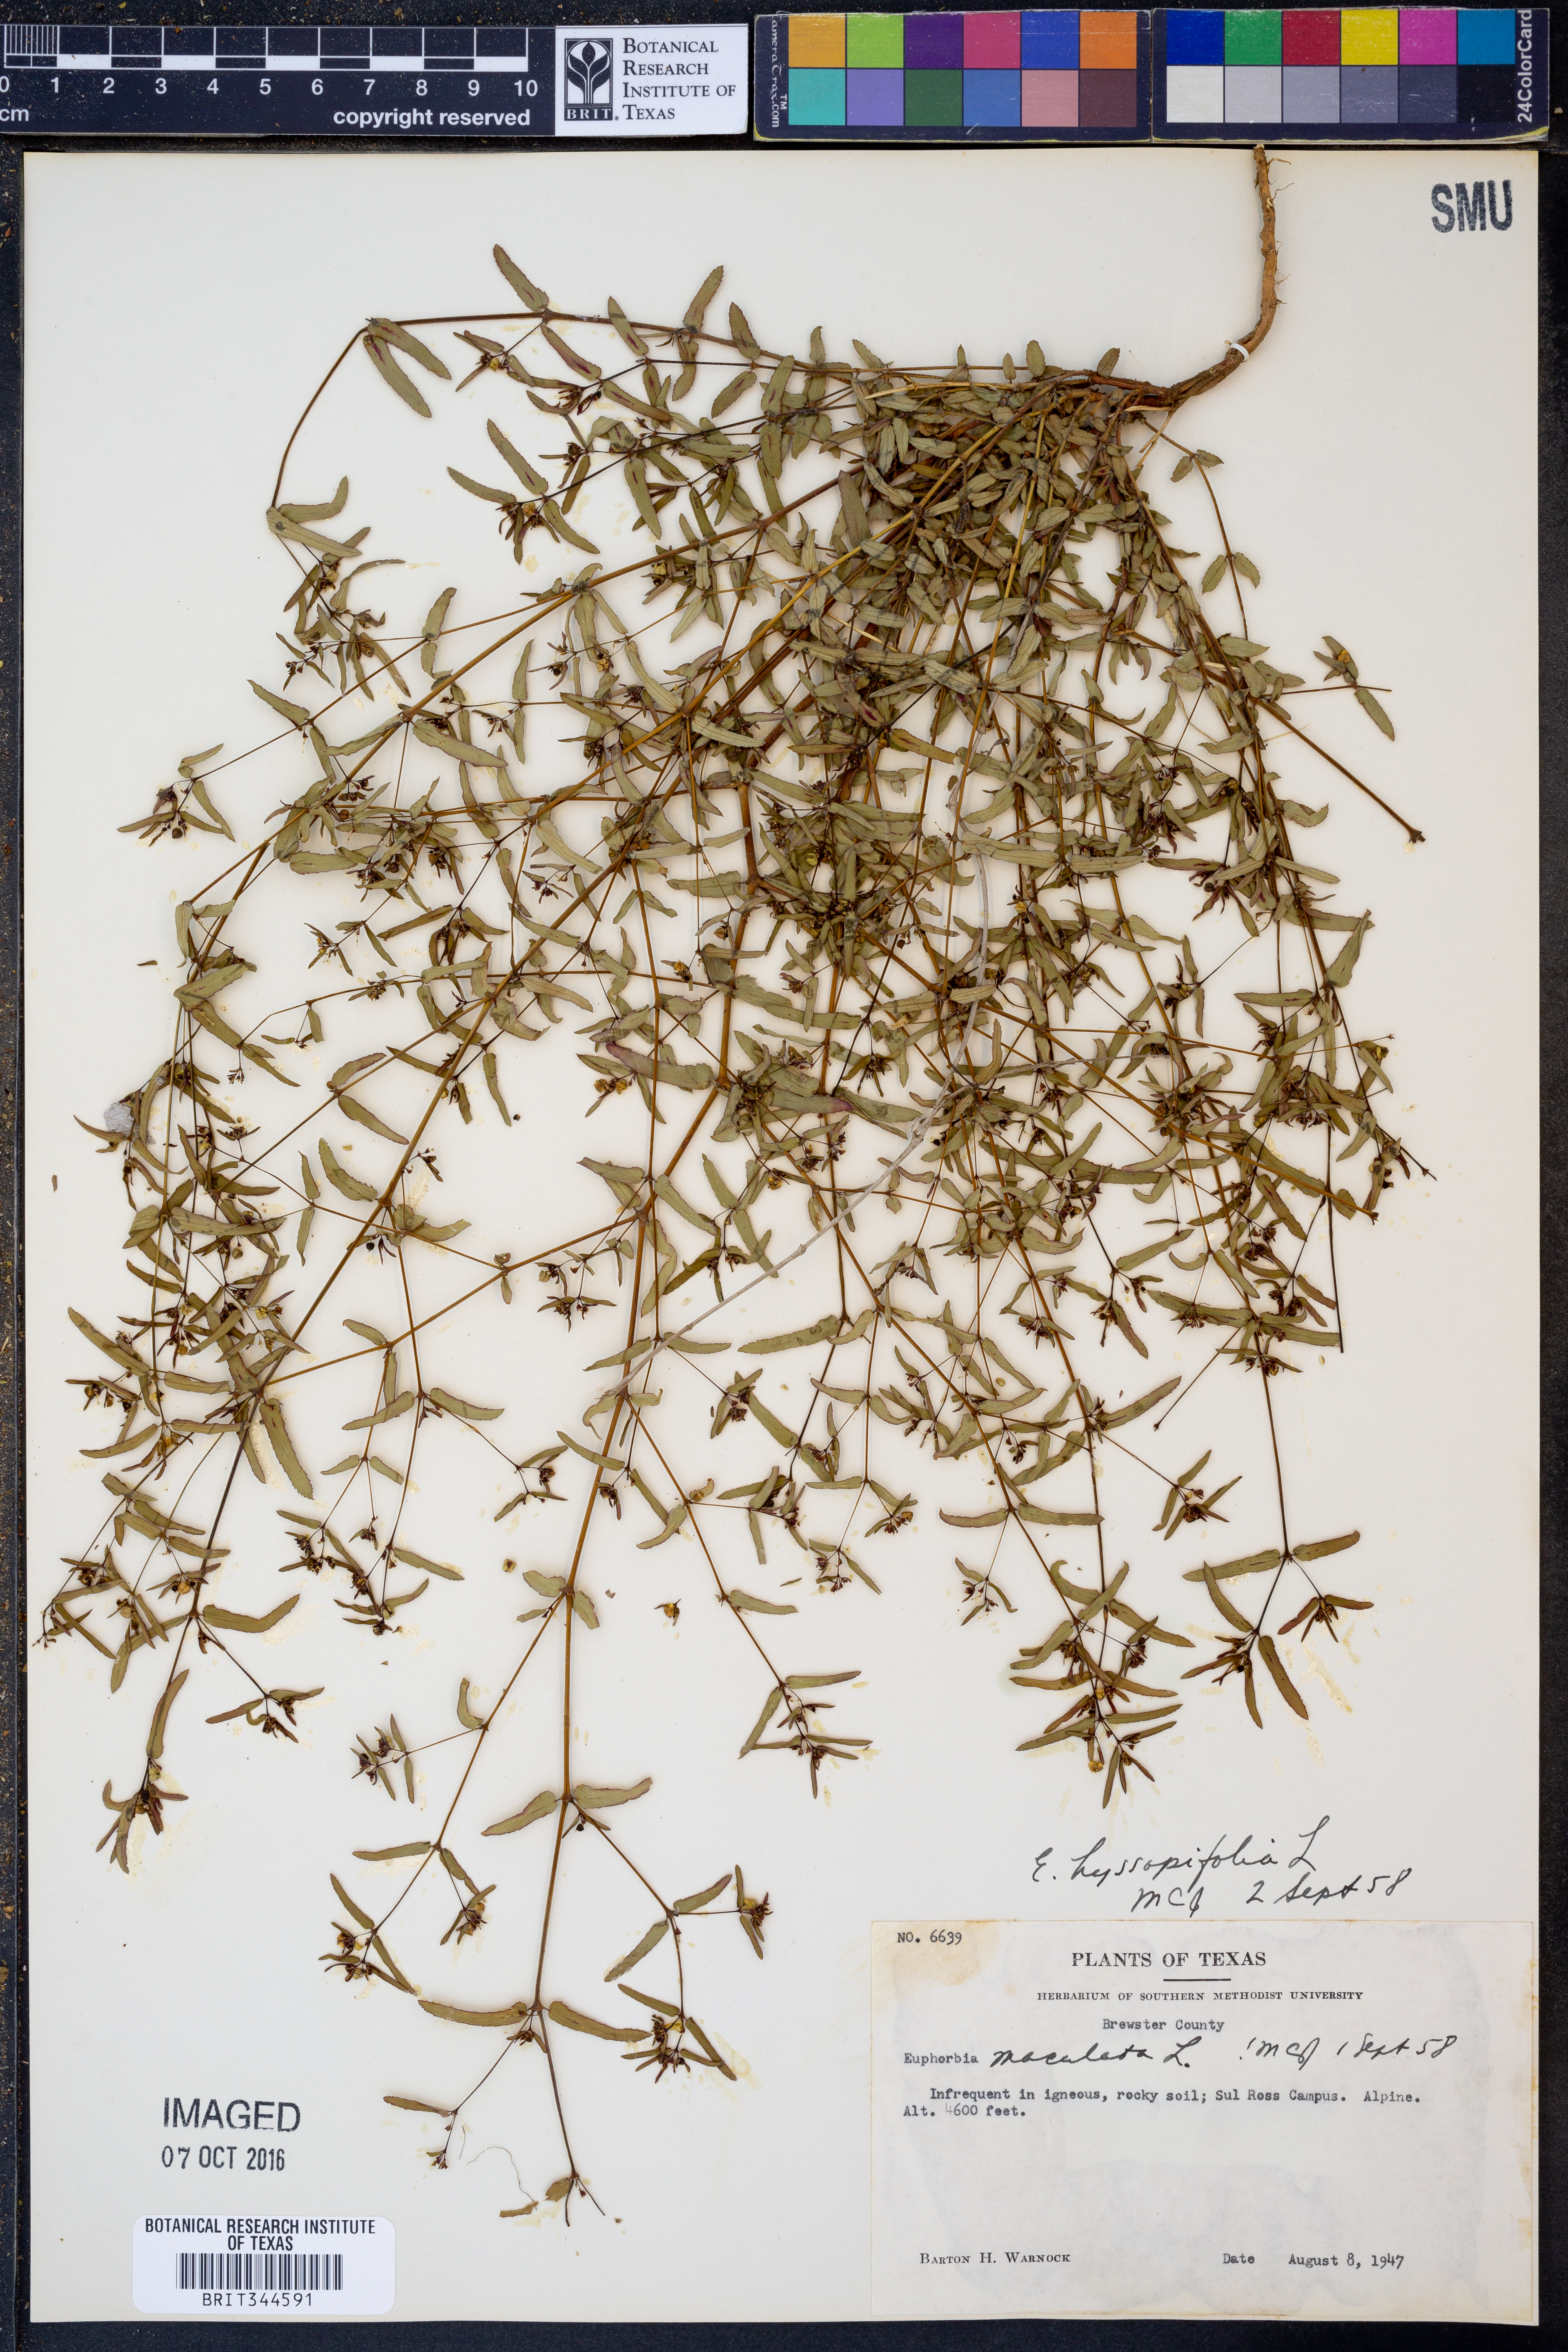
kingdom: Plantae
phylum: Tracheophyta
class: Magnoliopsida
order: Malpighiales
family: Euphorbiaceae
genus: Euphorbia
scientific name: Euphorbia hyssopifolia
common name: Hyssopleaf sandmat
